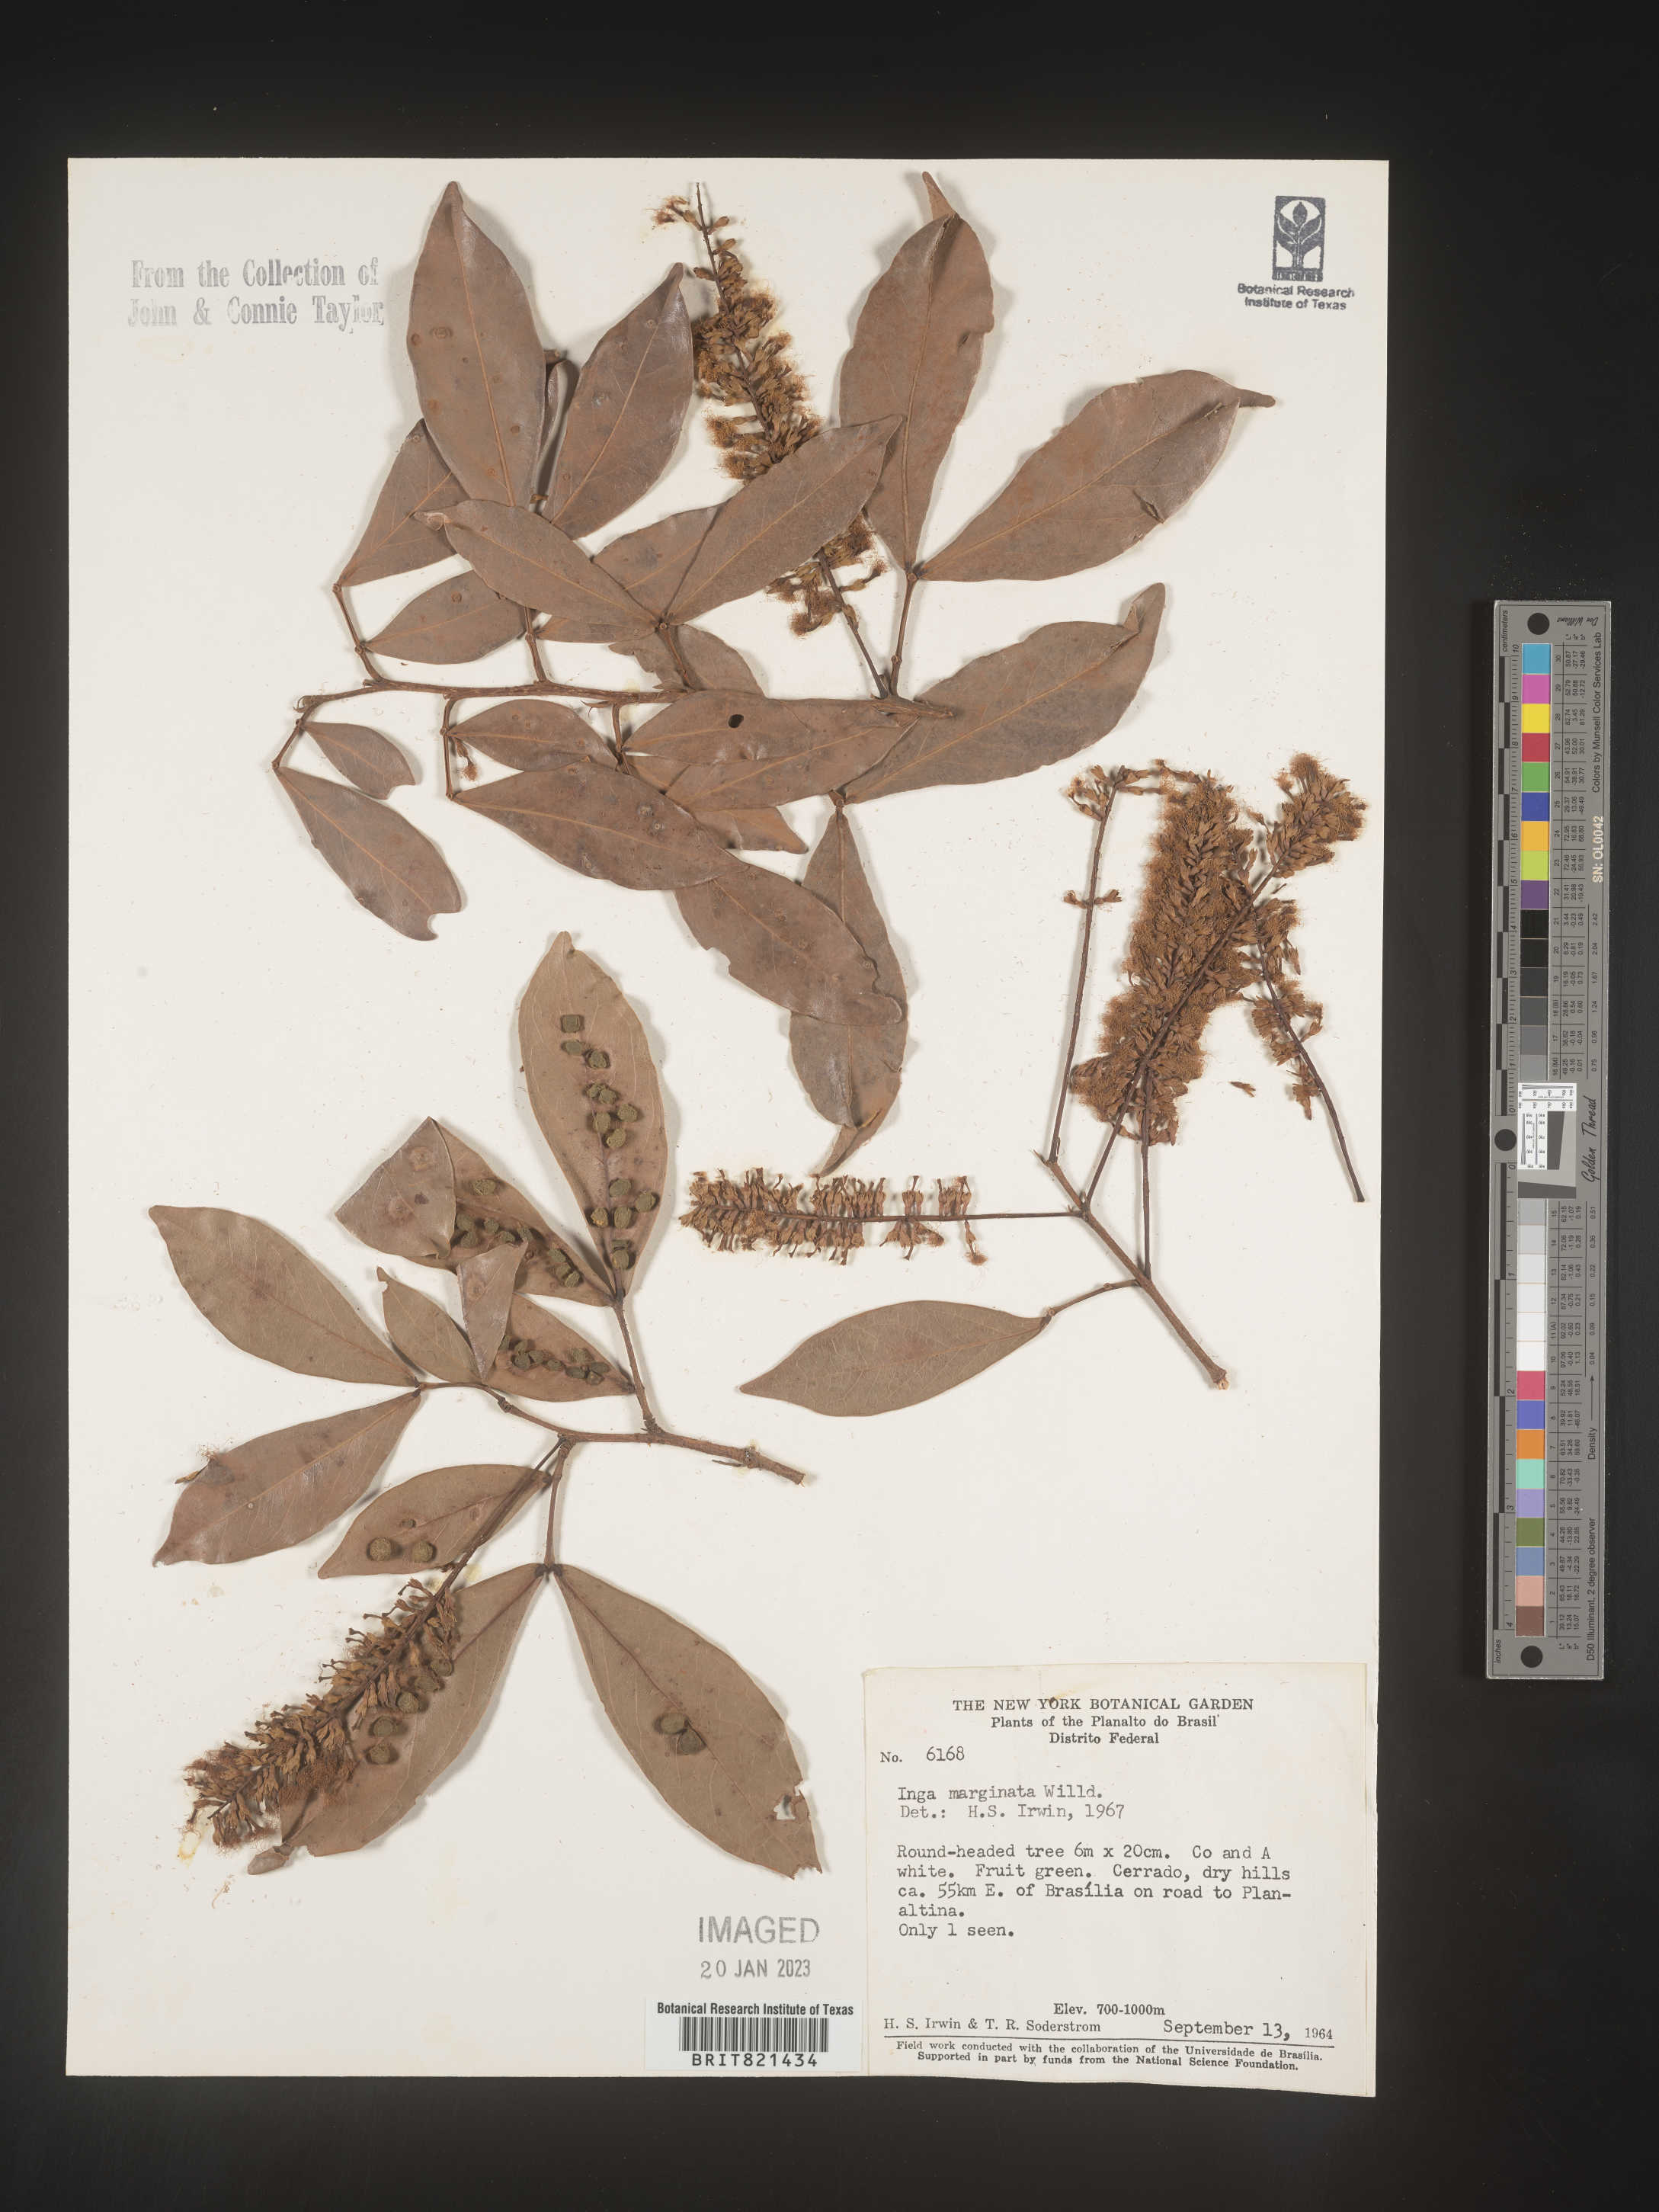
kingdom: Plantae
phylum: Tracheophyta
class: Magnoliopsida
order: Fabales
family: Fabaceae
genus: Inga
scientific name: Inga
